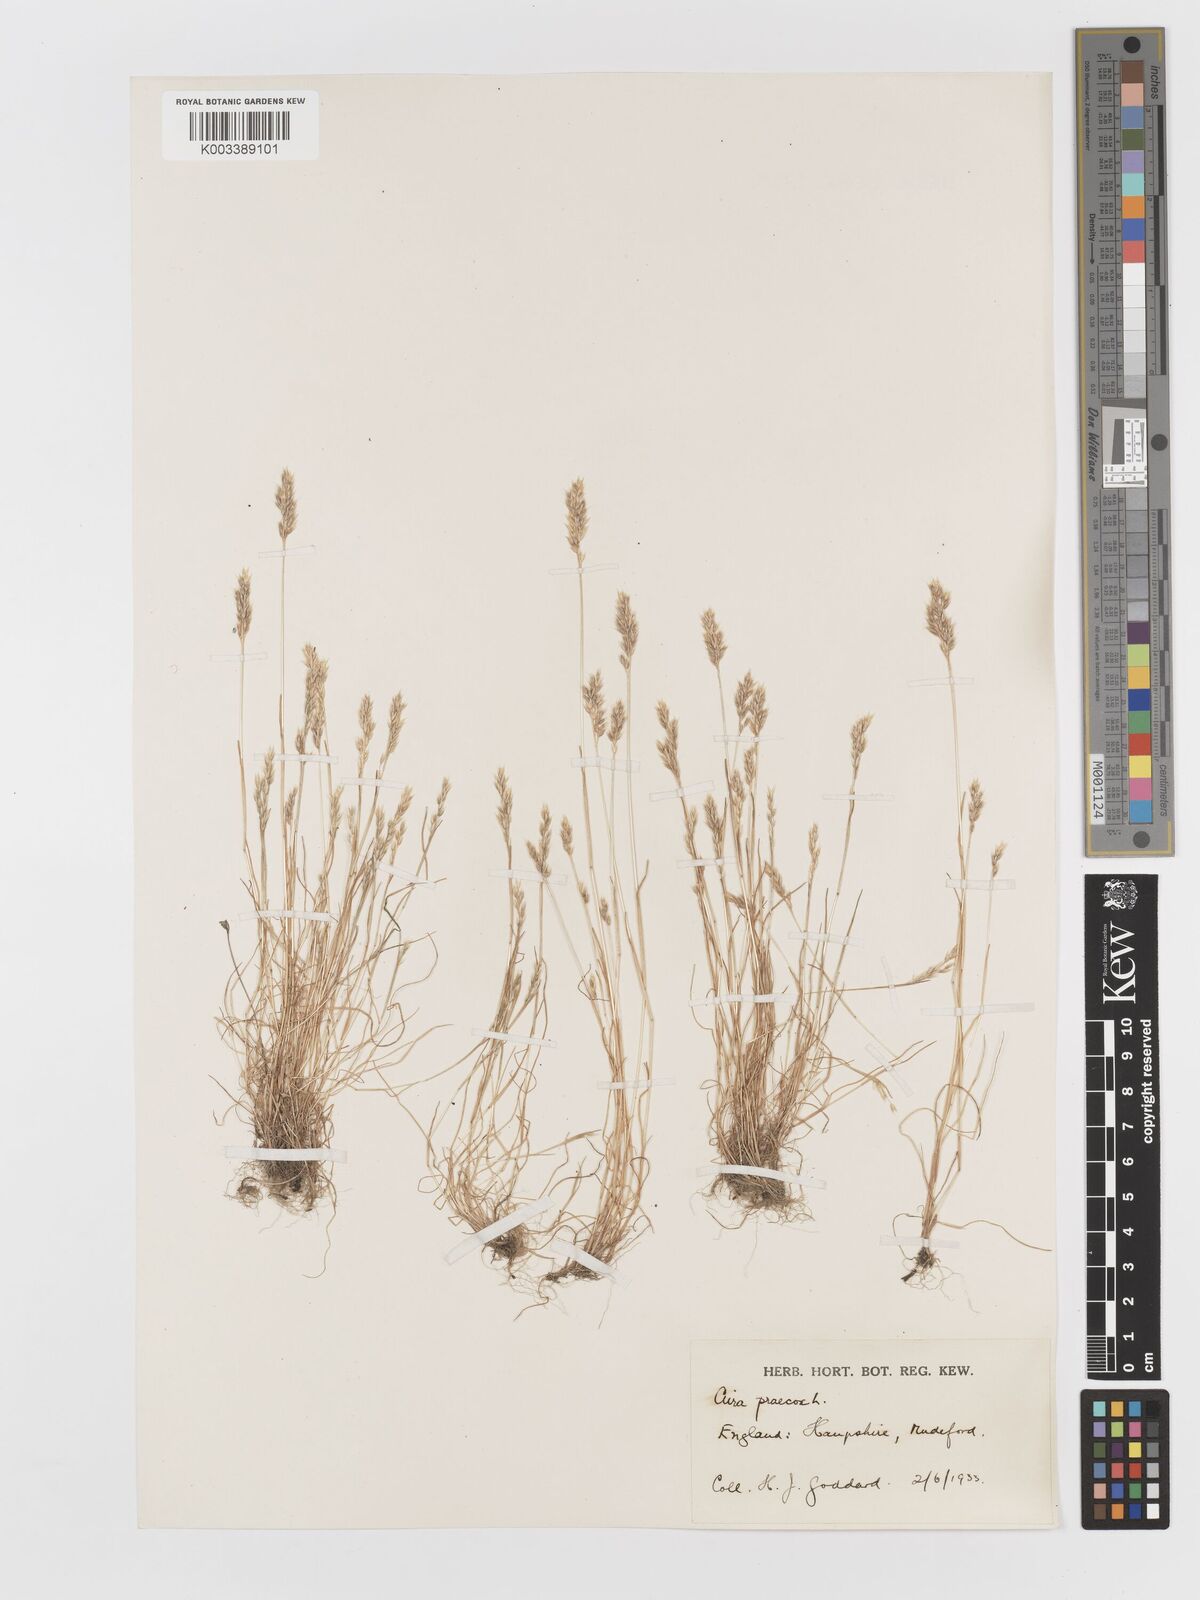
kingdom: Plantae
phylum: Tracheophyta
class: Liliopsida
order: Poales
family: Poaceae
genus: Aira
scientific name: Aira praecox
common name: Early hair-grass
